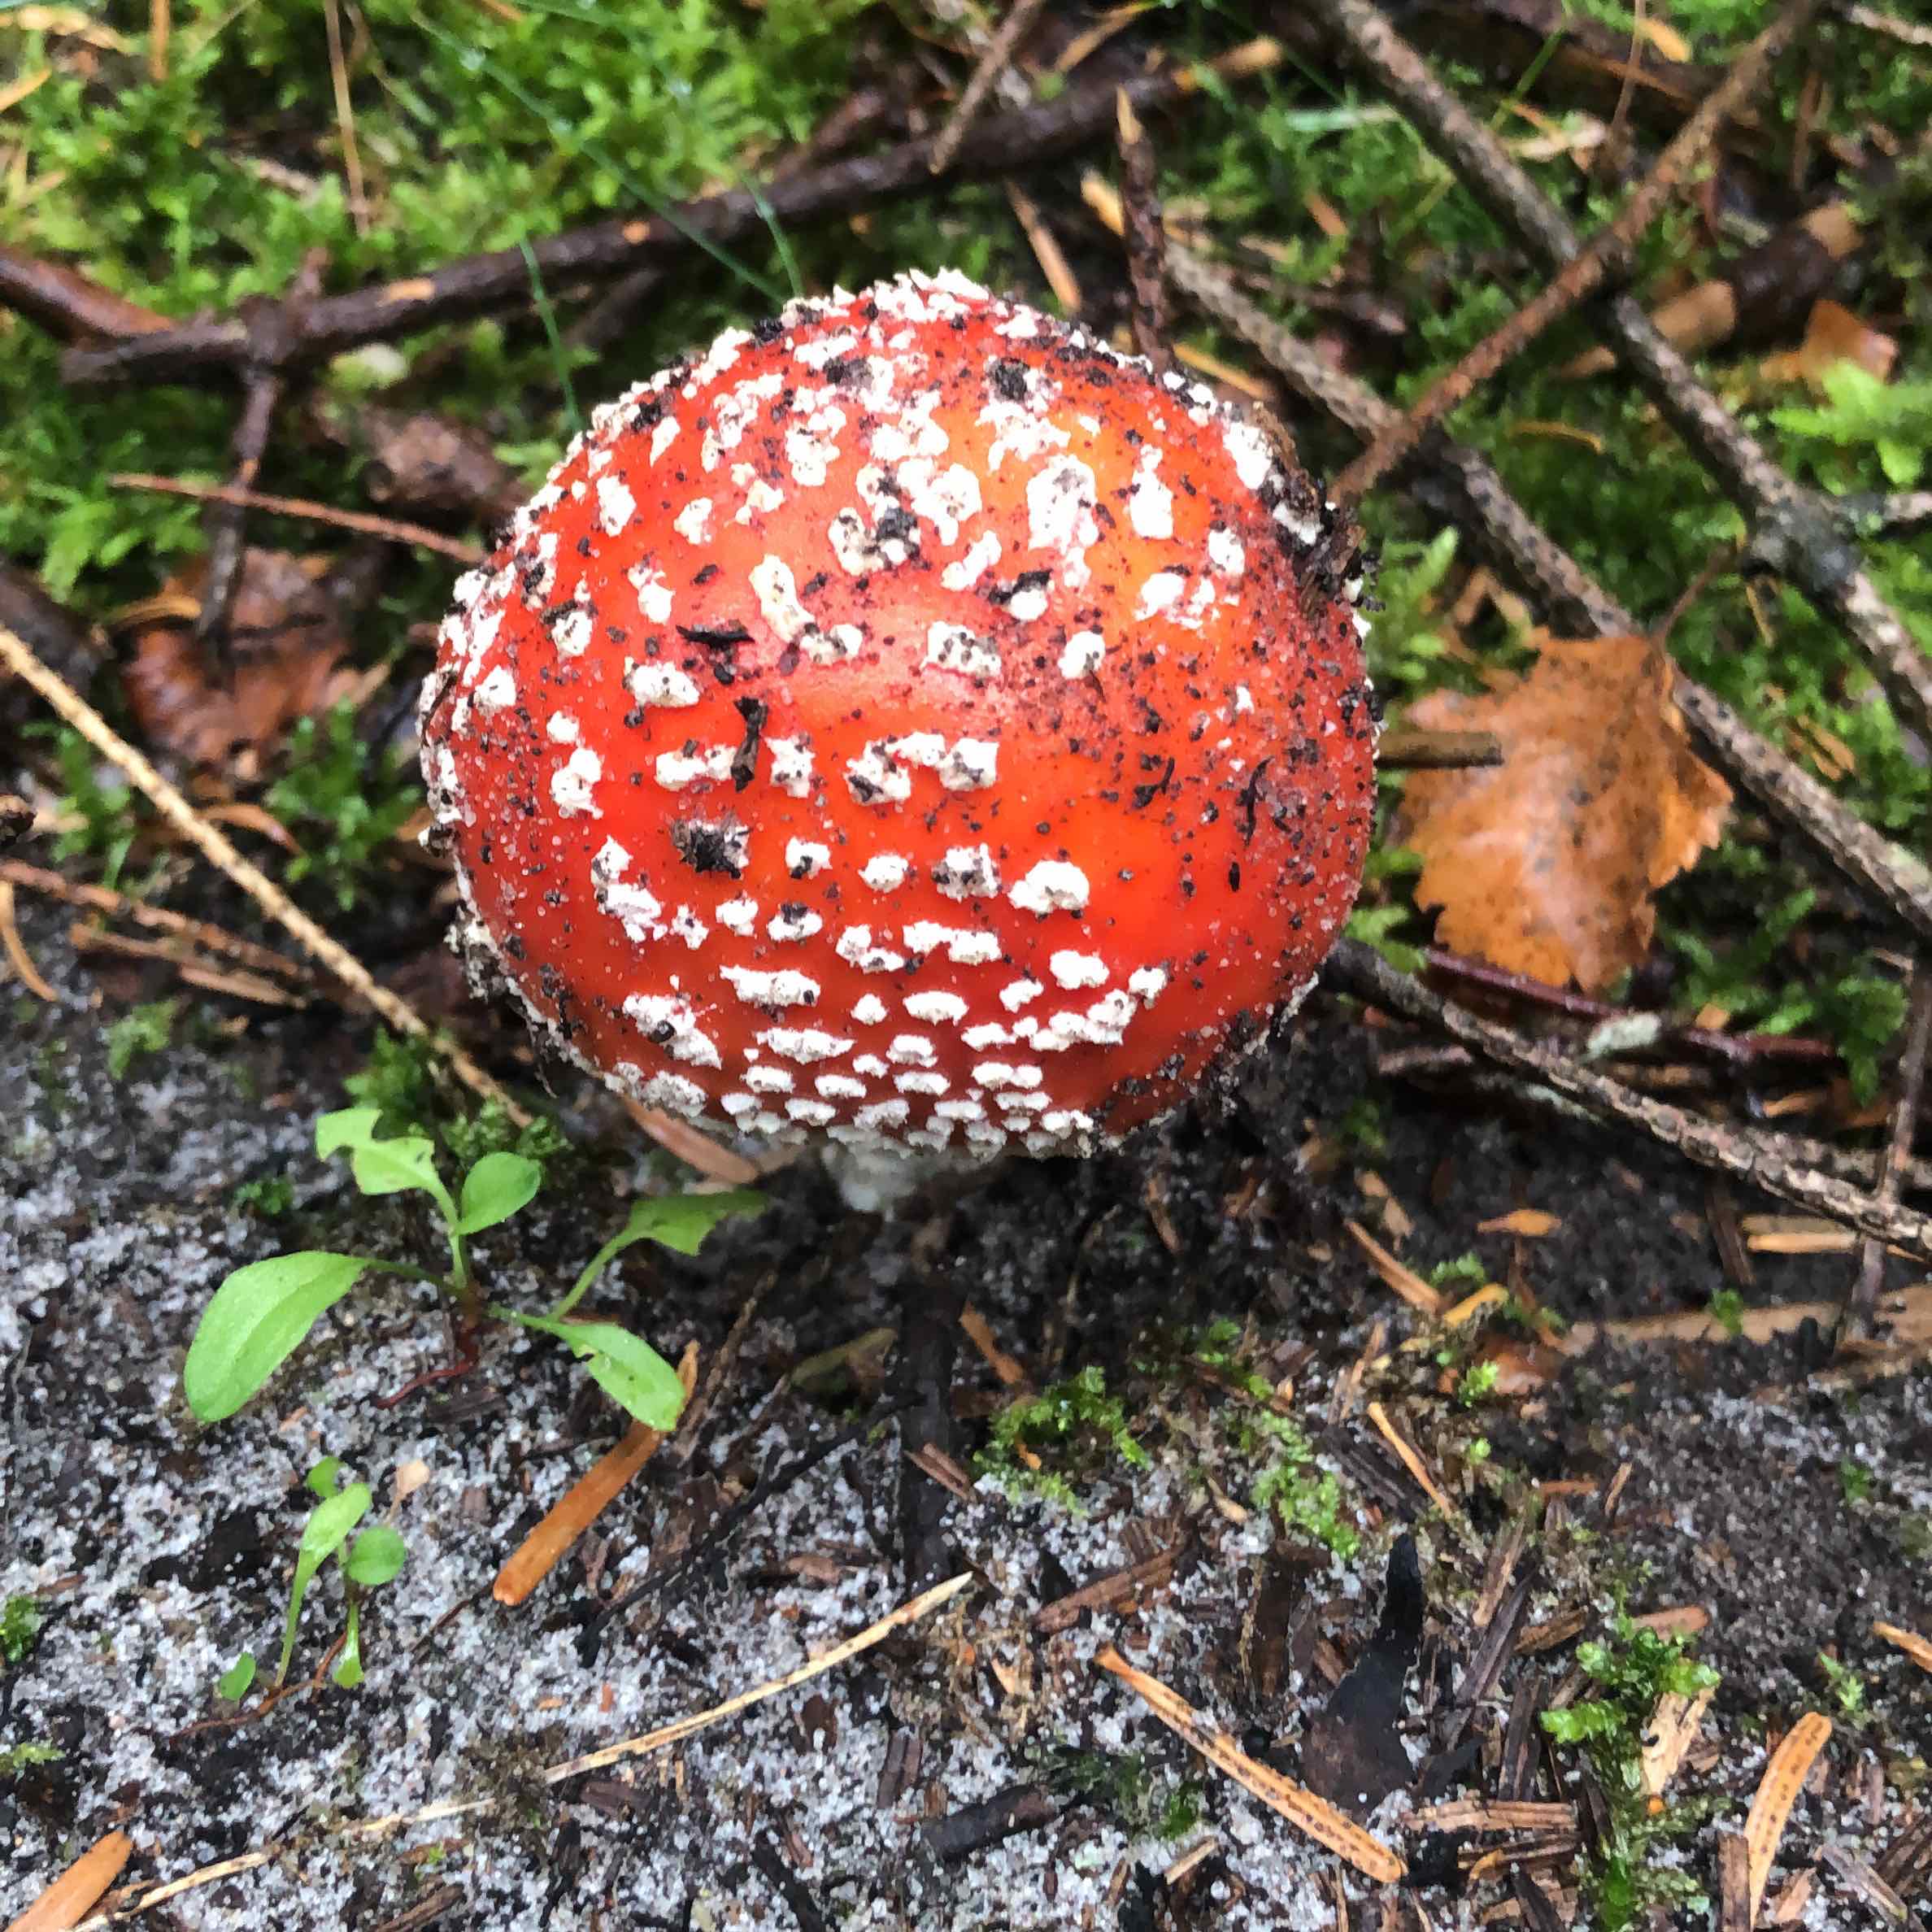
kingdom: Fungi
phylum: Basidiomycota
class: Agaricomycetes
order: Agaricales
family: Amanitaceae
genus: Amanita
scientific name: Amanita muscaria
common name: rød fluesvamp
